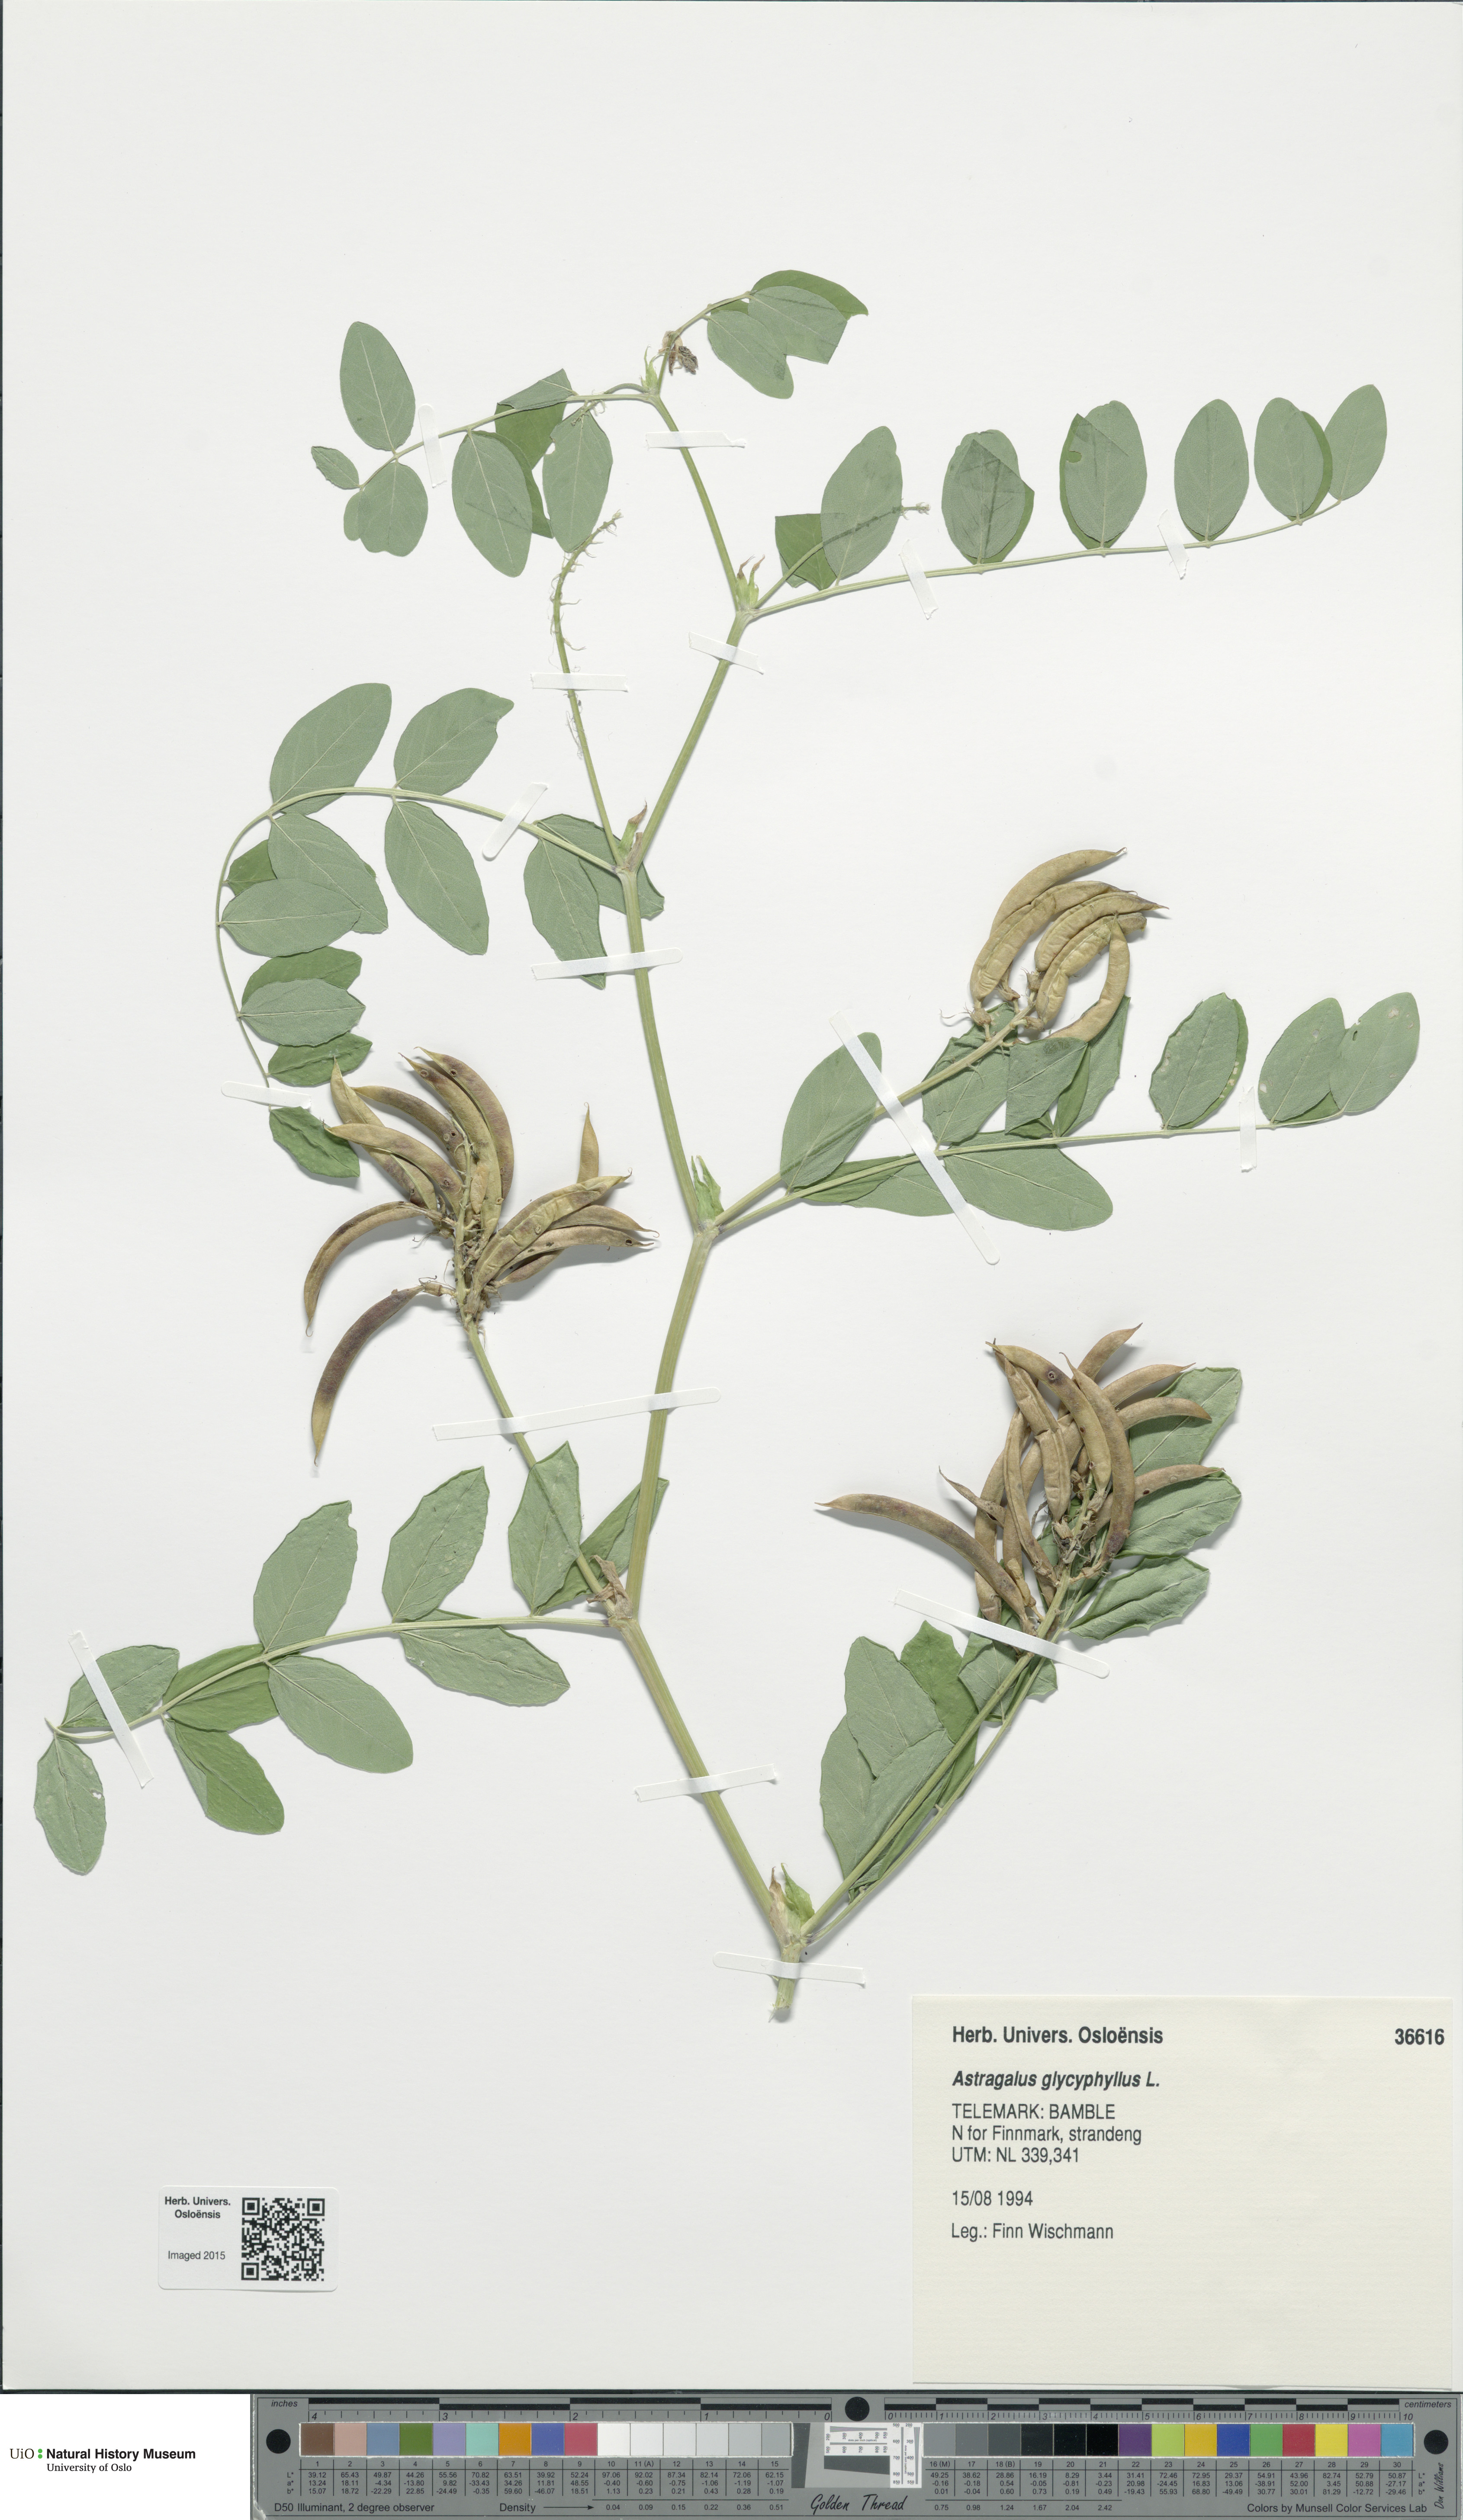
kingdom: Plantae
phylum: Tracheophyta
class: Magnoliopsida
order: Fabales
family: Fabaceae
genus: Astragalus
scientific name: Astragalus glycyphyllos
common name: Wild liquorice
